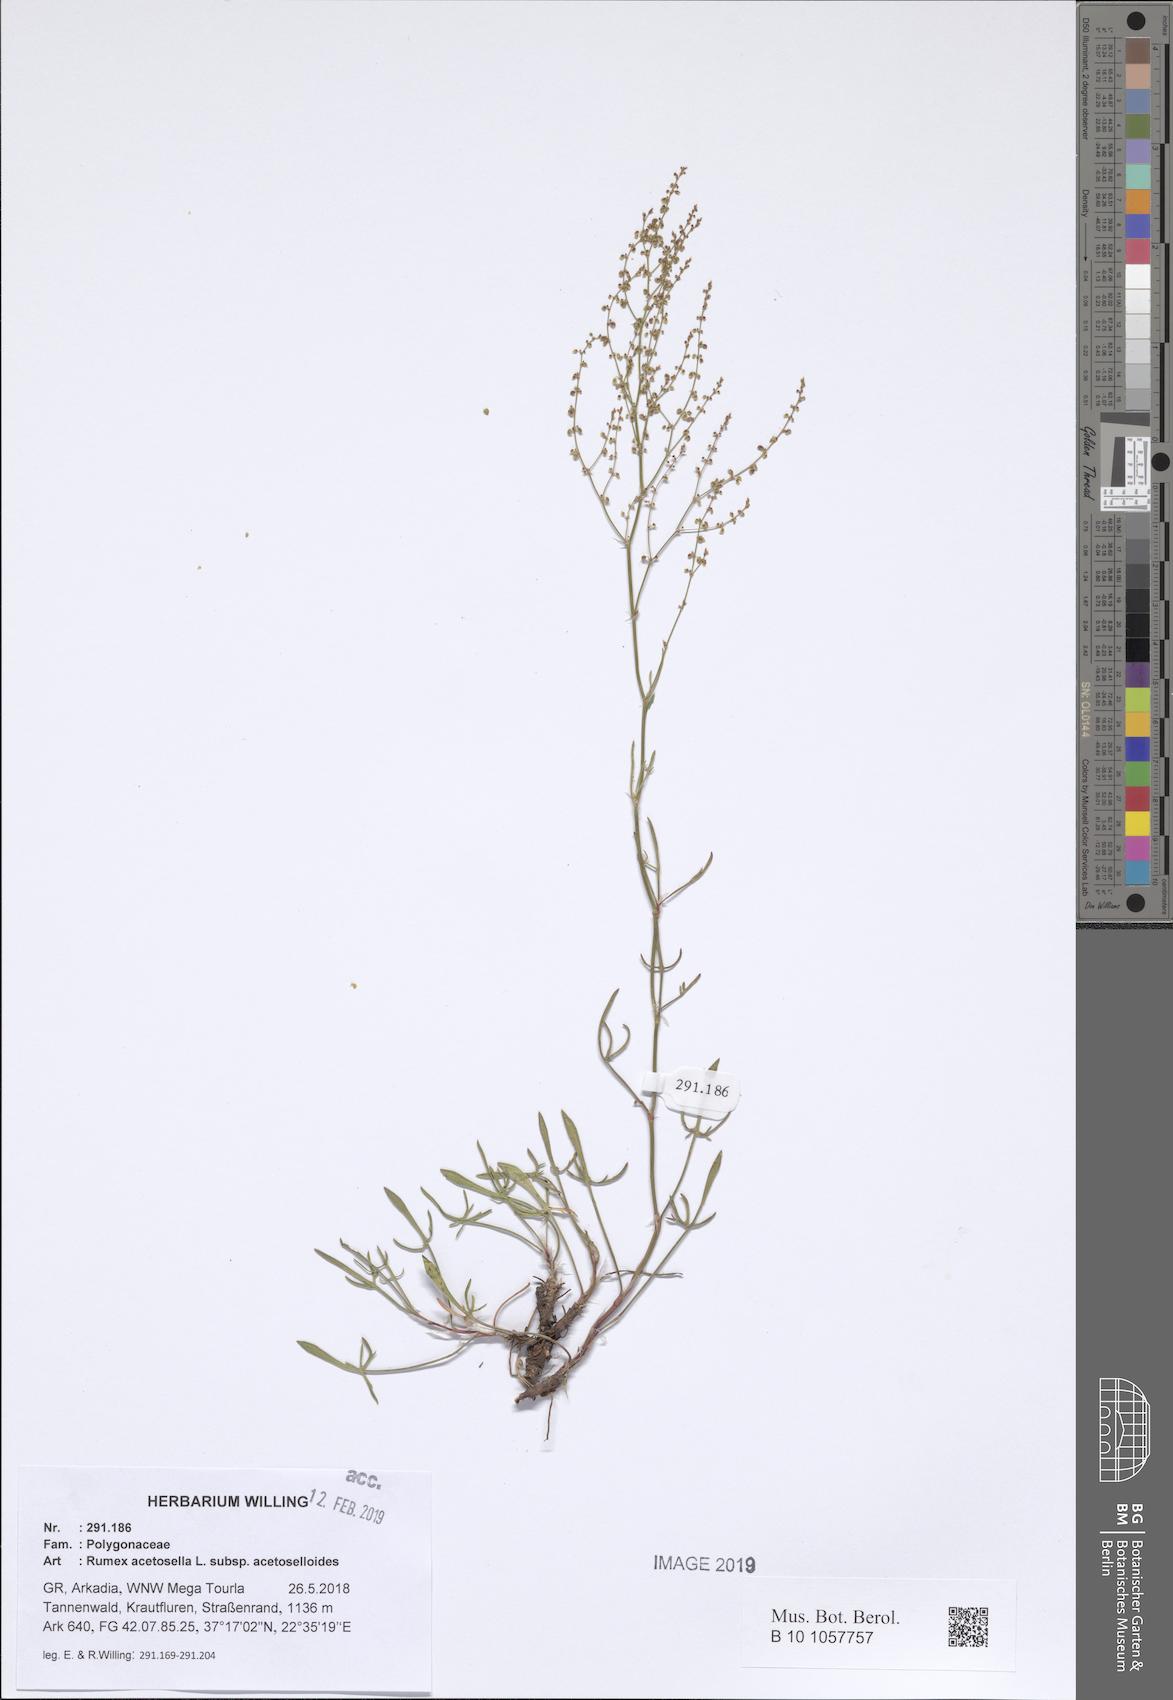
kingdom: Plantae
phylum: Tracheophyta
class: Magnoliopsida
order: Caryophyllales
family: Polygonaceae
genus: Rumex
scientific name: Rumex acetosella
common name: Common sheep sorrel
